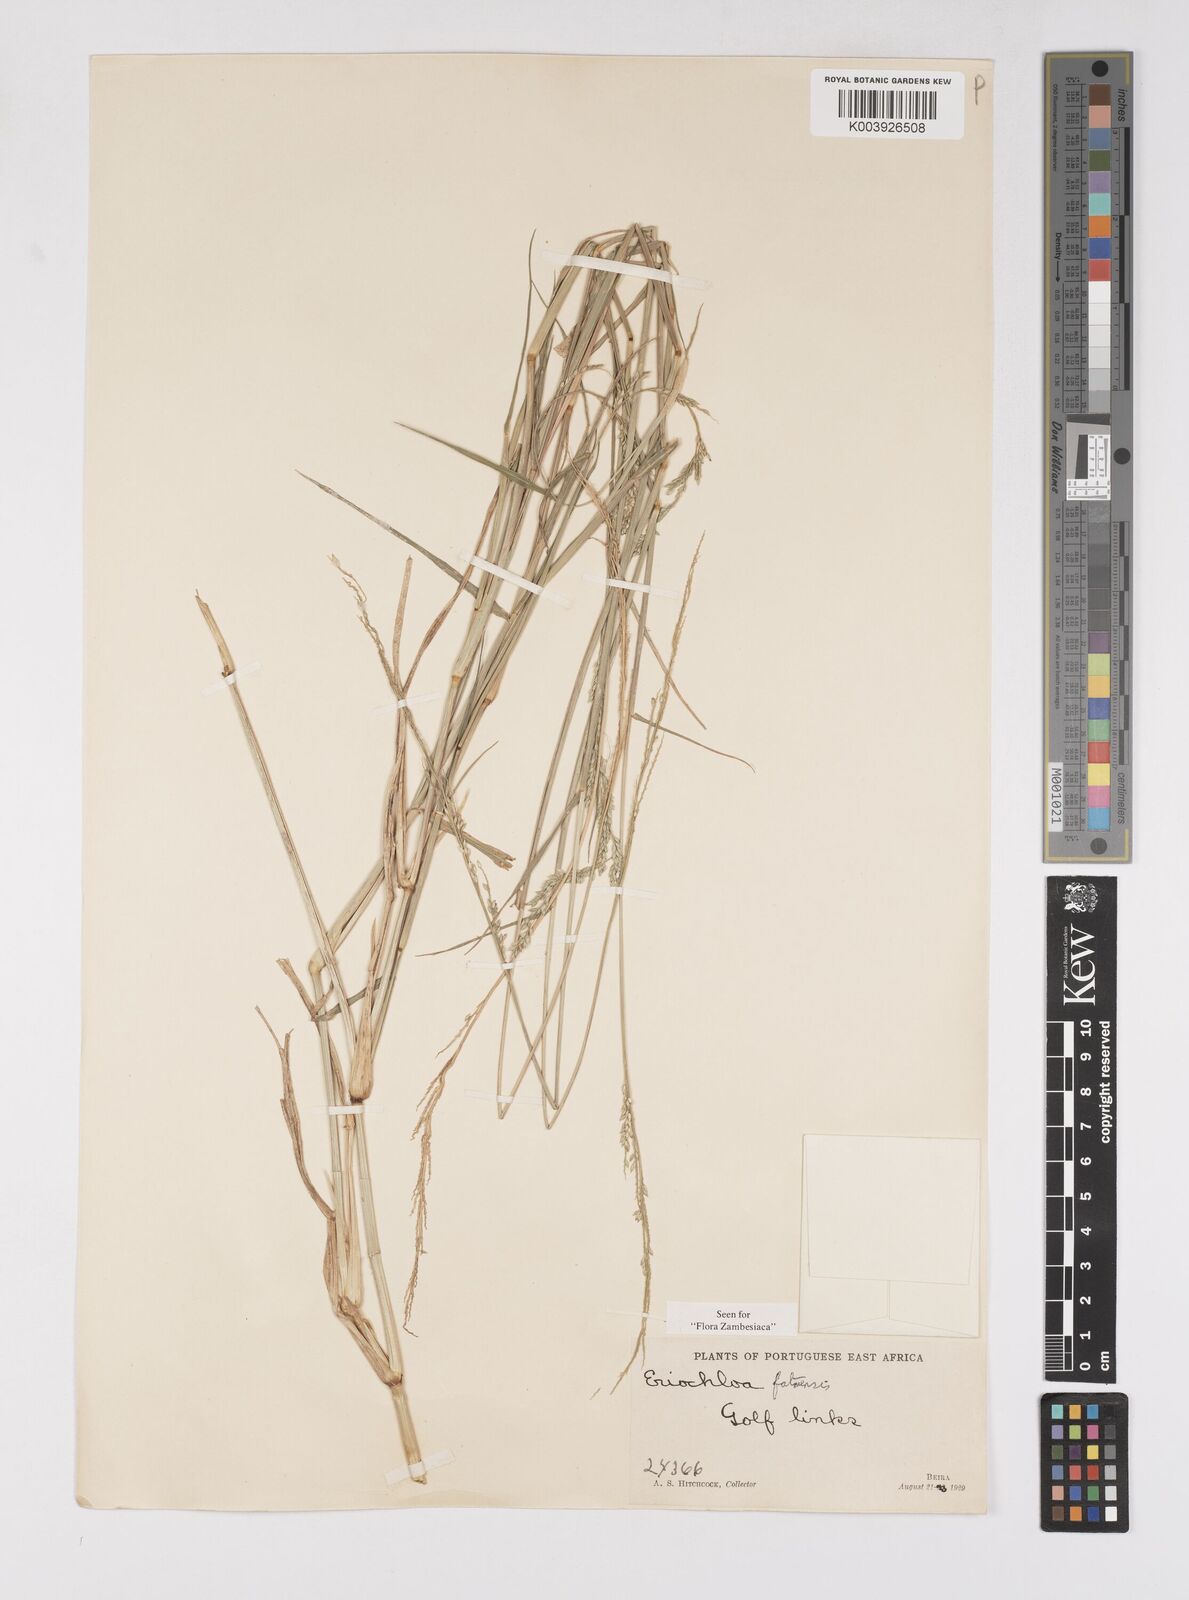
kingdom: Plantae
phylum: Tracheophyta
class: Liliopsida
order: Poales
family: Poaceae
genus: Eriochloa
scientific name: Eriochloa barbatus
